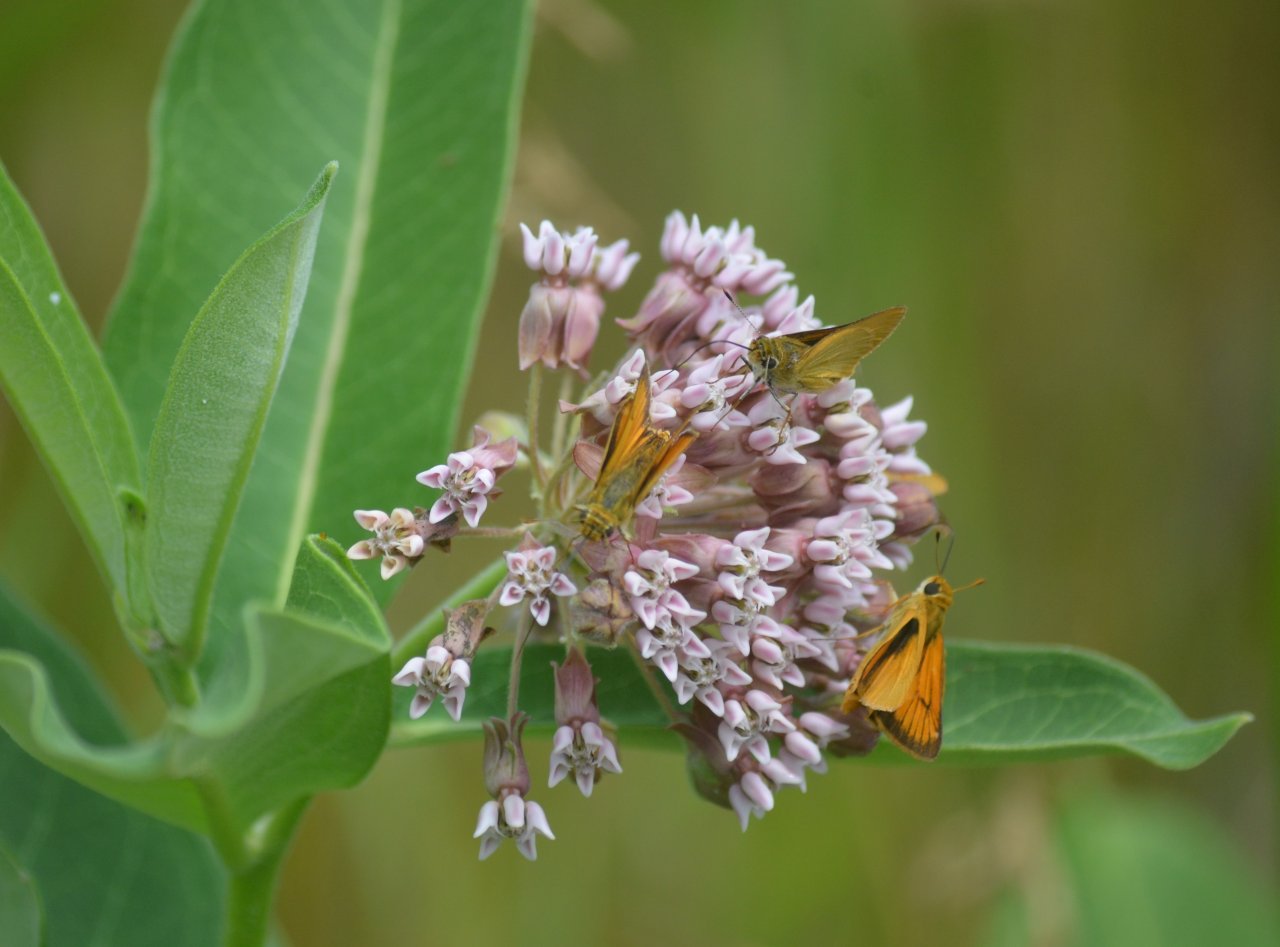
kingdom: Animalia
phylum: Arthropoda
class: Insecta
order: Lepidoptera
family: Hesperiidae
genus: Atrytone
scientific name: Atrytone delaware
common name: Delaware Skipper
